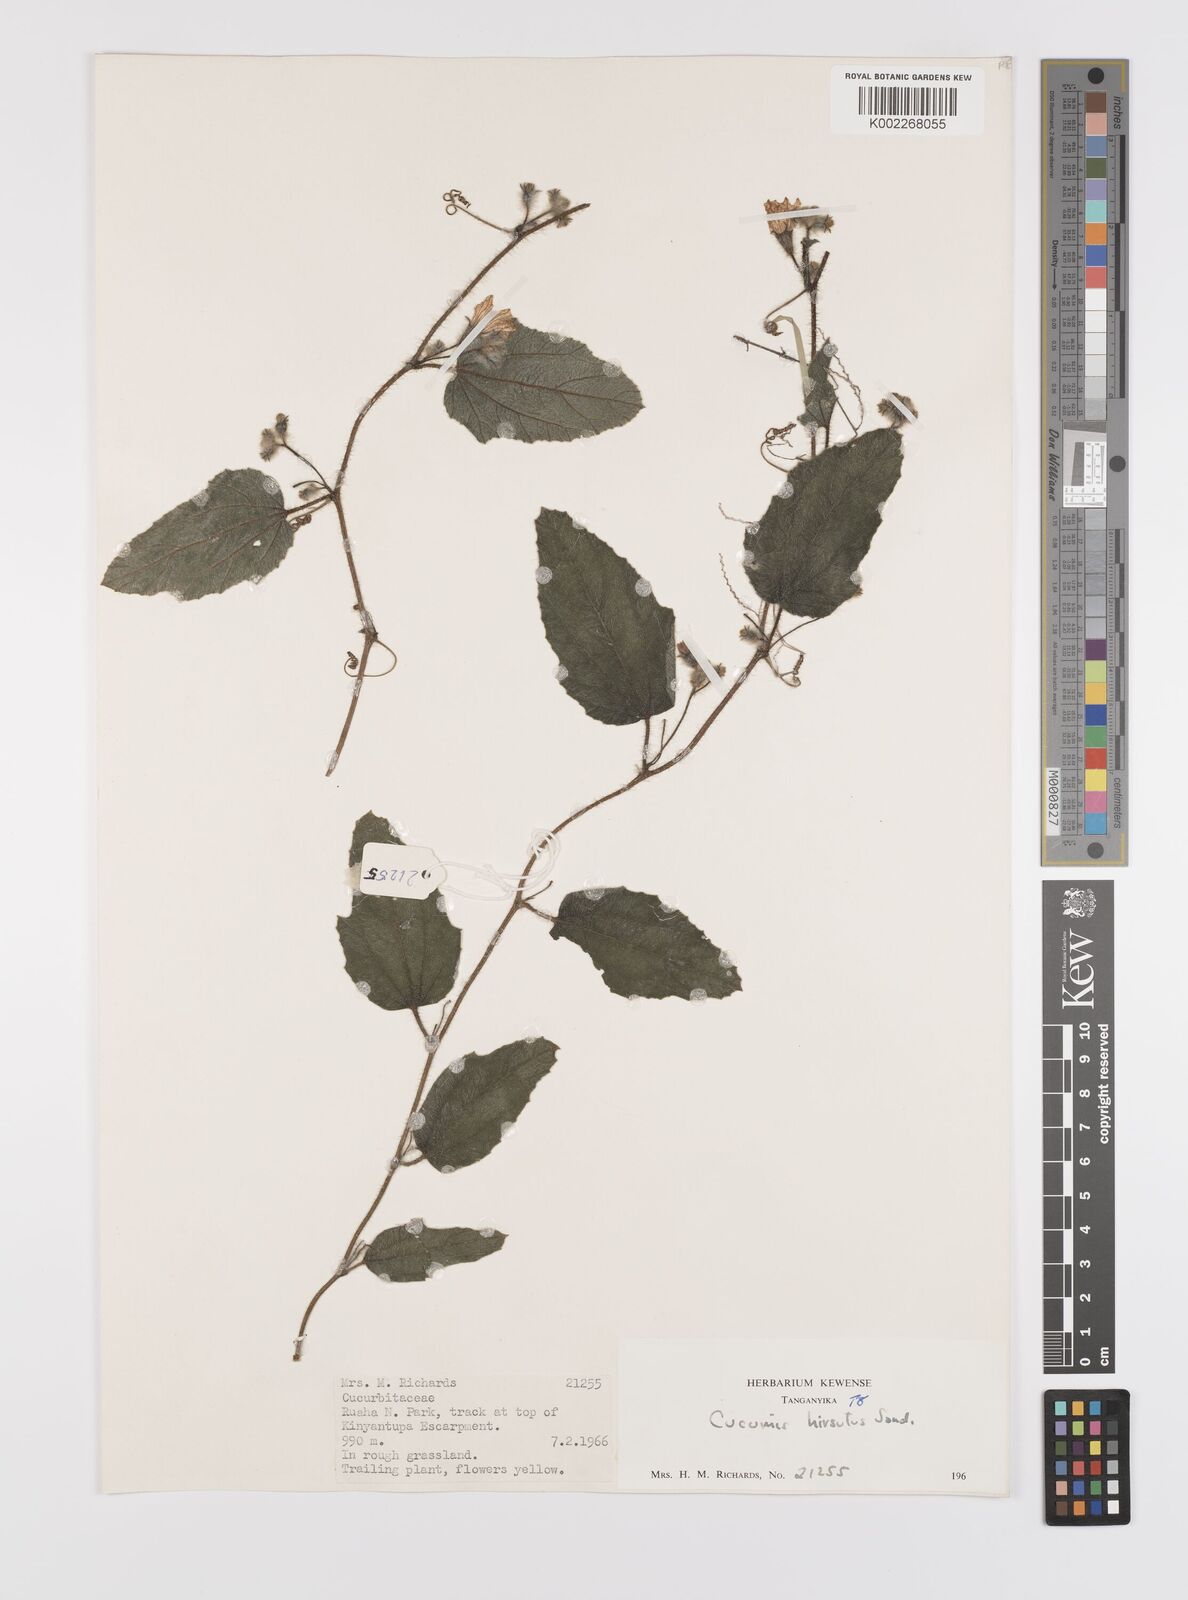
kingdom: Plantae
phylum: Tracheophyta
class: Magnoliopsida
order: Cucurbitales
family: Cucurbitaceae
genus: Cucumis
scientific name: Cucumis hirsutus
